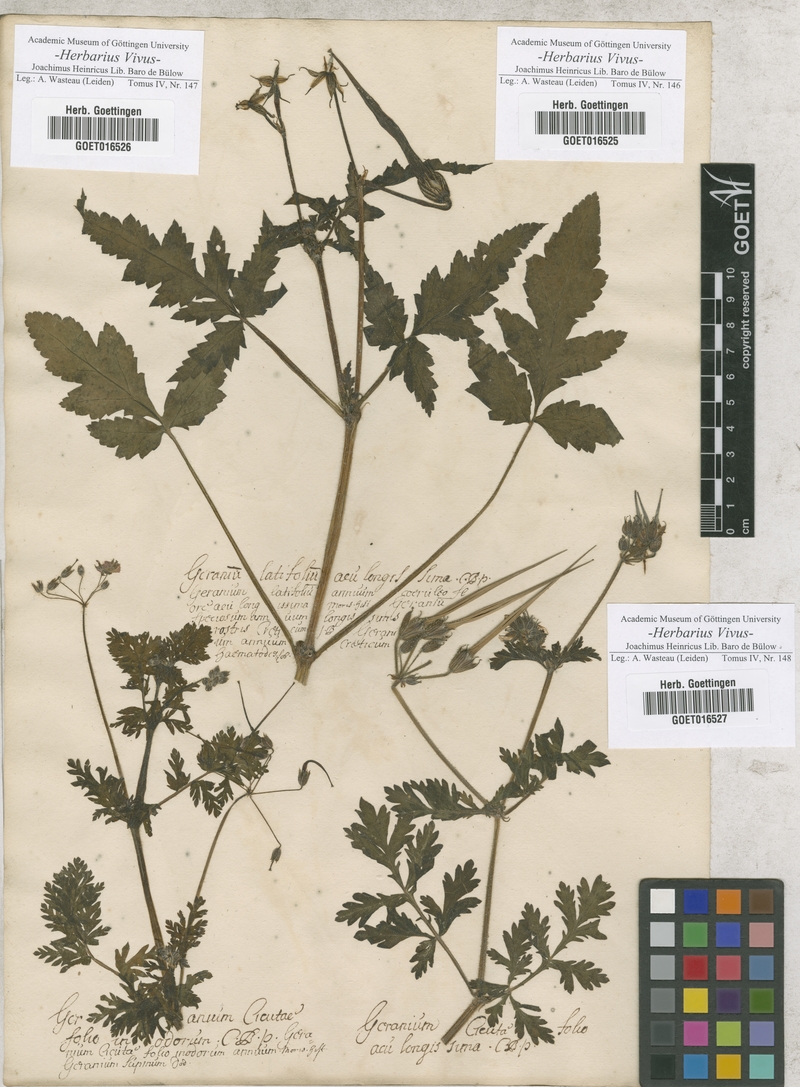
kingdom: Plantae
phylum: Tracheophyta
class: Magnoliopsida
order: Geraniales
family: Geraniaceae
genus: Erodium
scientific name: Erodium gruinum
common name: Iranian stork's bill
